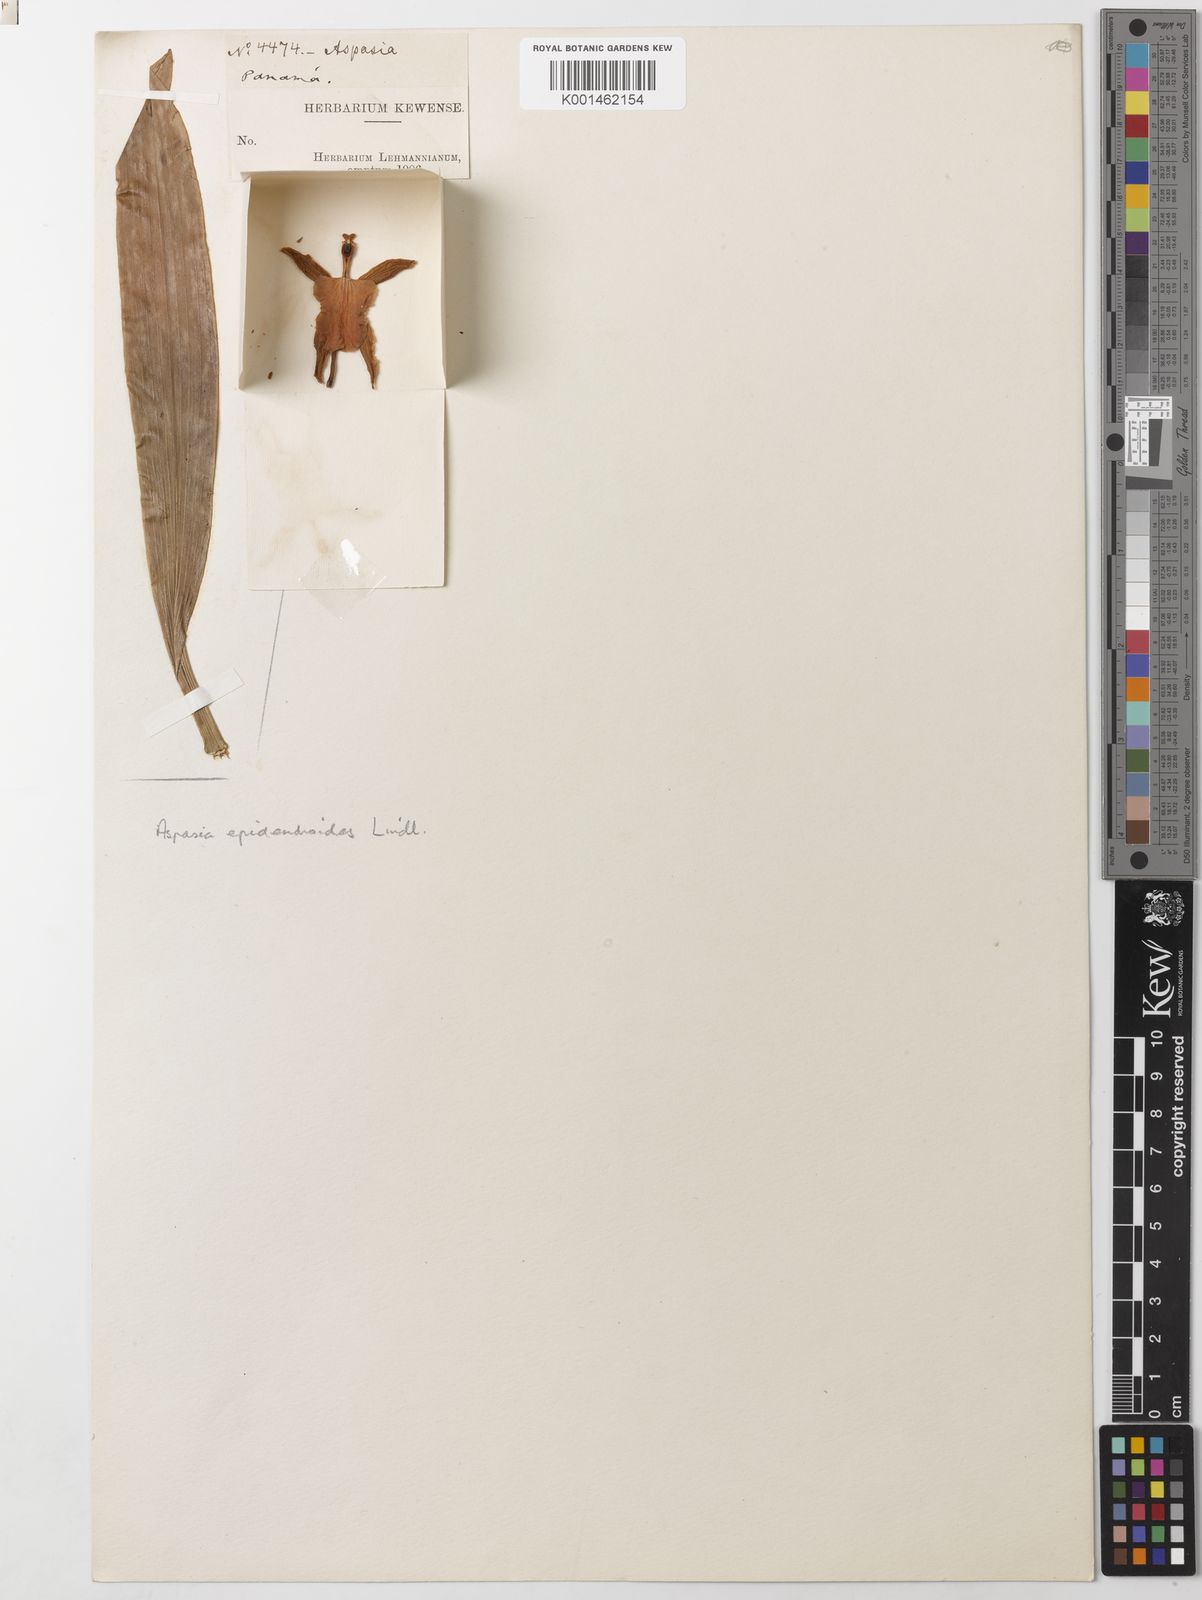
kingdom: Plantae
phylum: Tracheophyta
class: Liliopsida
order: Asparagales
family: Orchidaceae
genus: Aspasia
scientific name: Aspasia epidendroides
